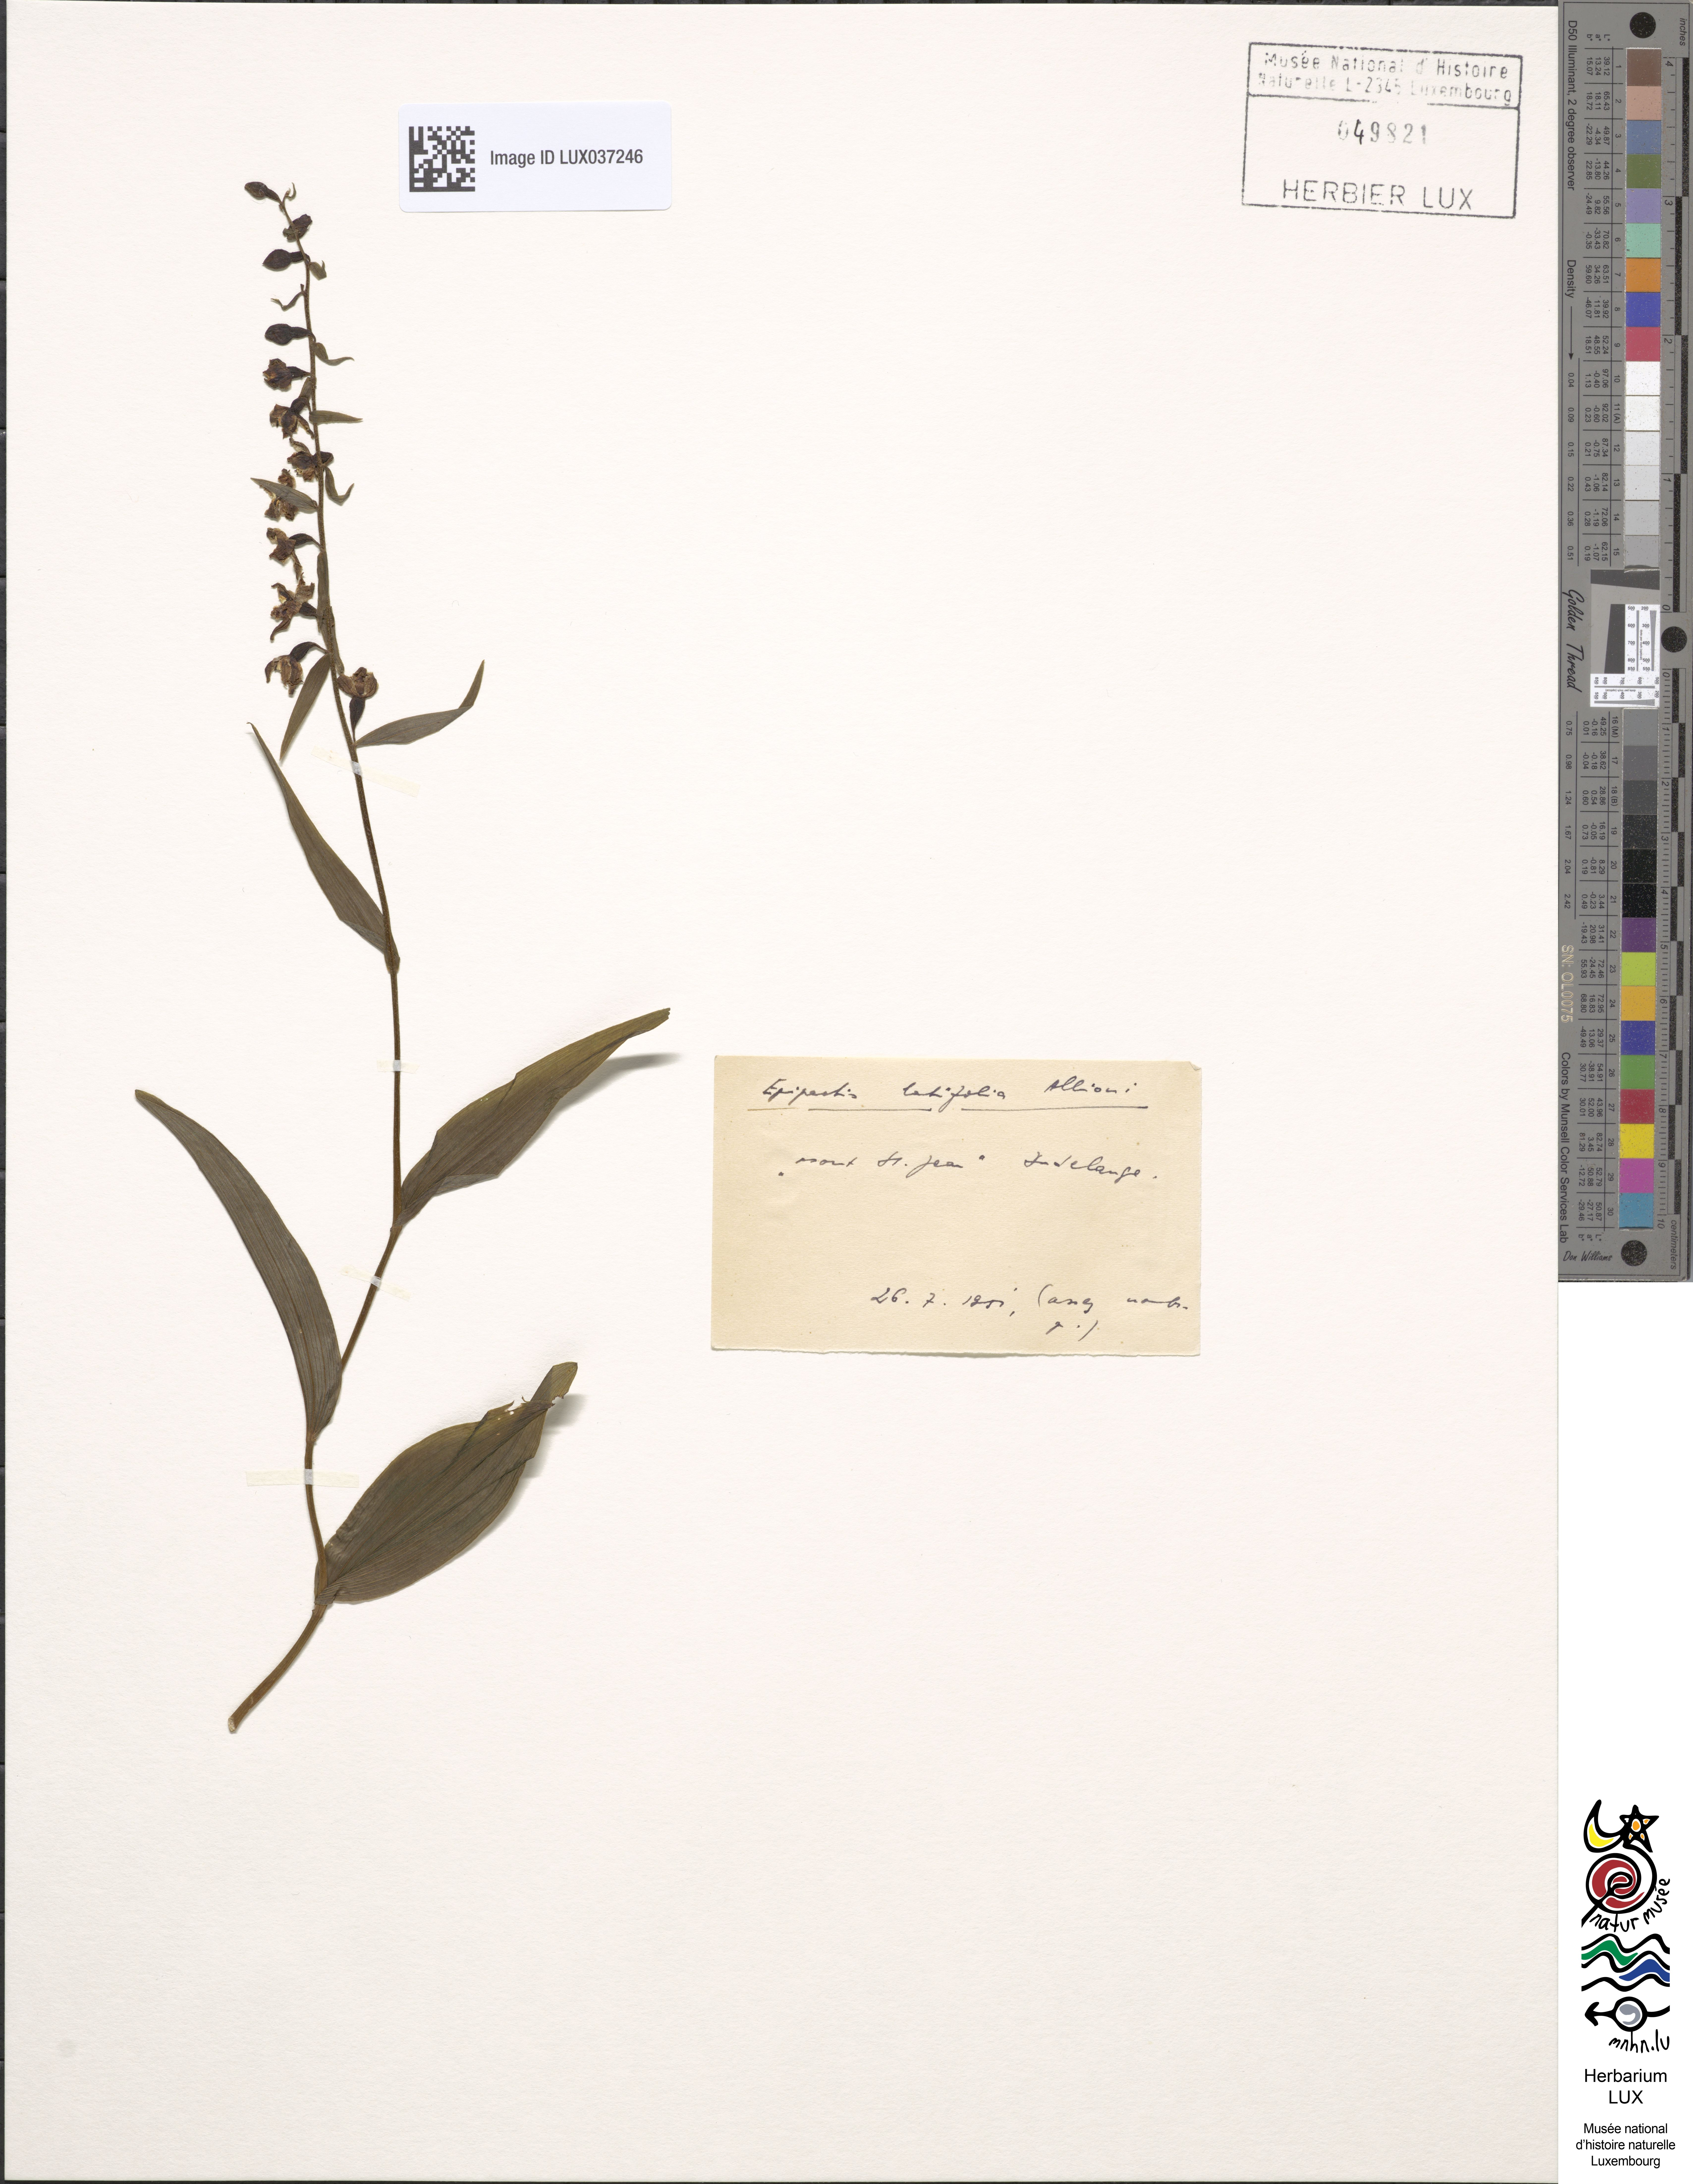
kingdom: Plantae
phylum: Tracheophyta
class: Liliopsida
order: Asparagales
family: Orchidaceae
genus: Epipactis
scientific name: Epipactis helleborine
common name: Broad-leaved helleborine
